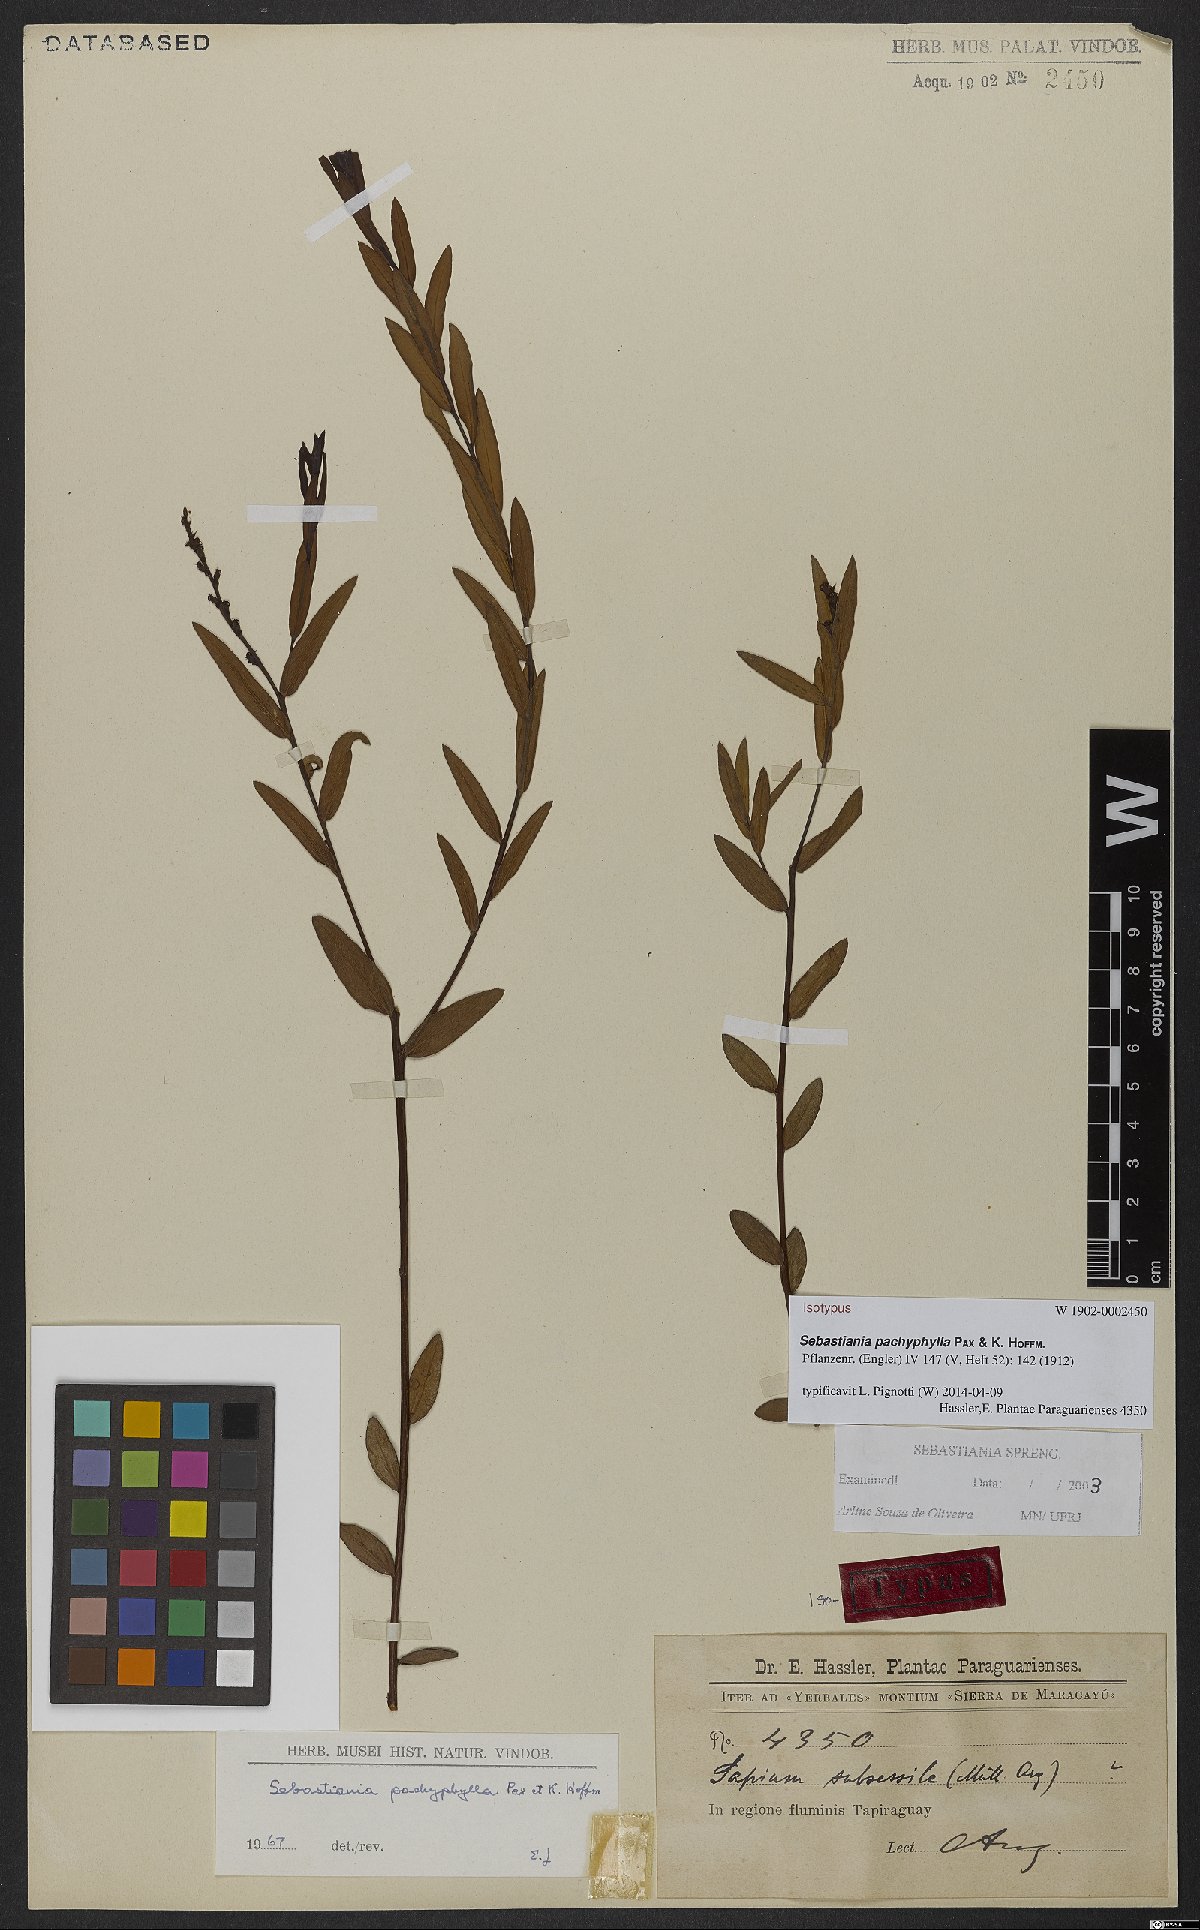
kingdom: Plantae
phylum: Tracheophyta
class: Magnoliopsida
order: Malpighiales
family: Euphorbiaceae
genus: Sebastiania
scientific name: Sebastiania pachyphylla
